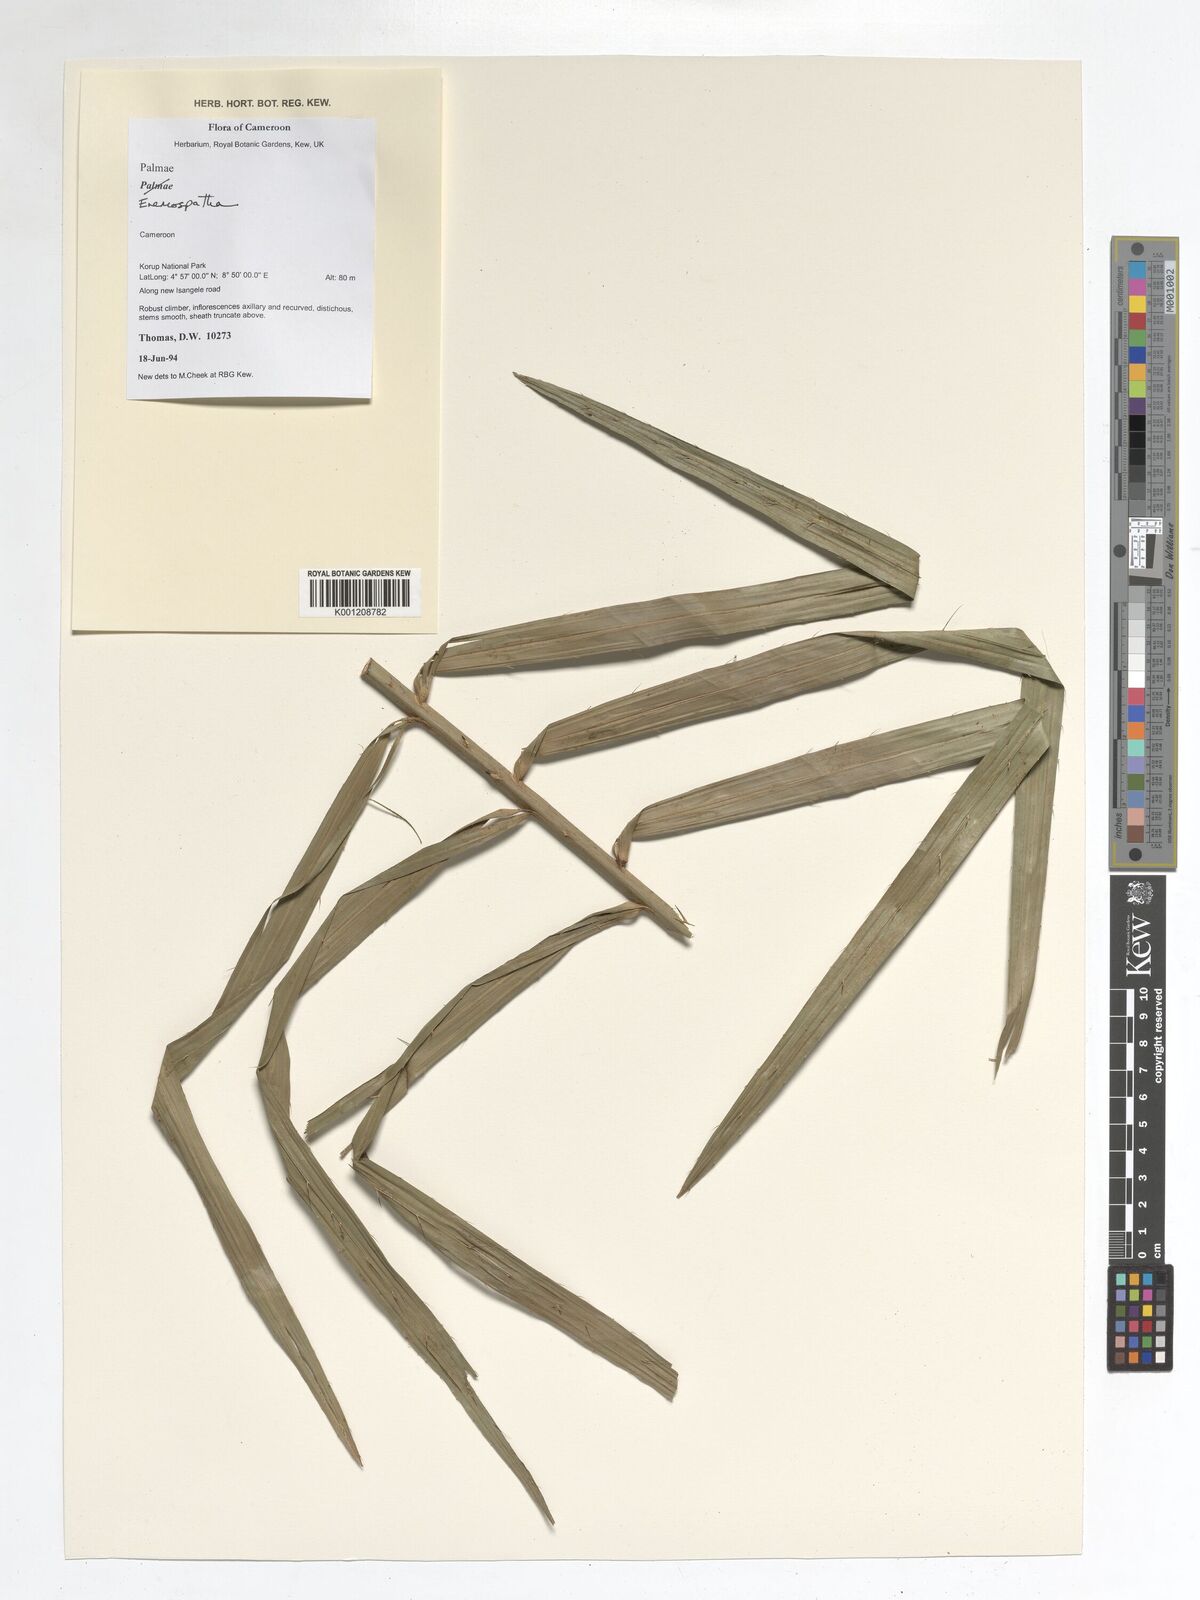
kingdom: Plantae
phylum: Tracheophyta
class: Liliopsida
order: Arecales
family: Arecaceae
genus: Eremospatha
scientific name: Eremospatha
